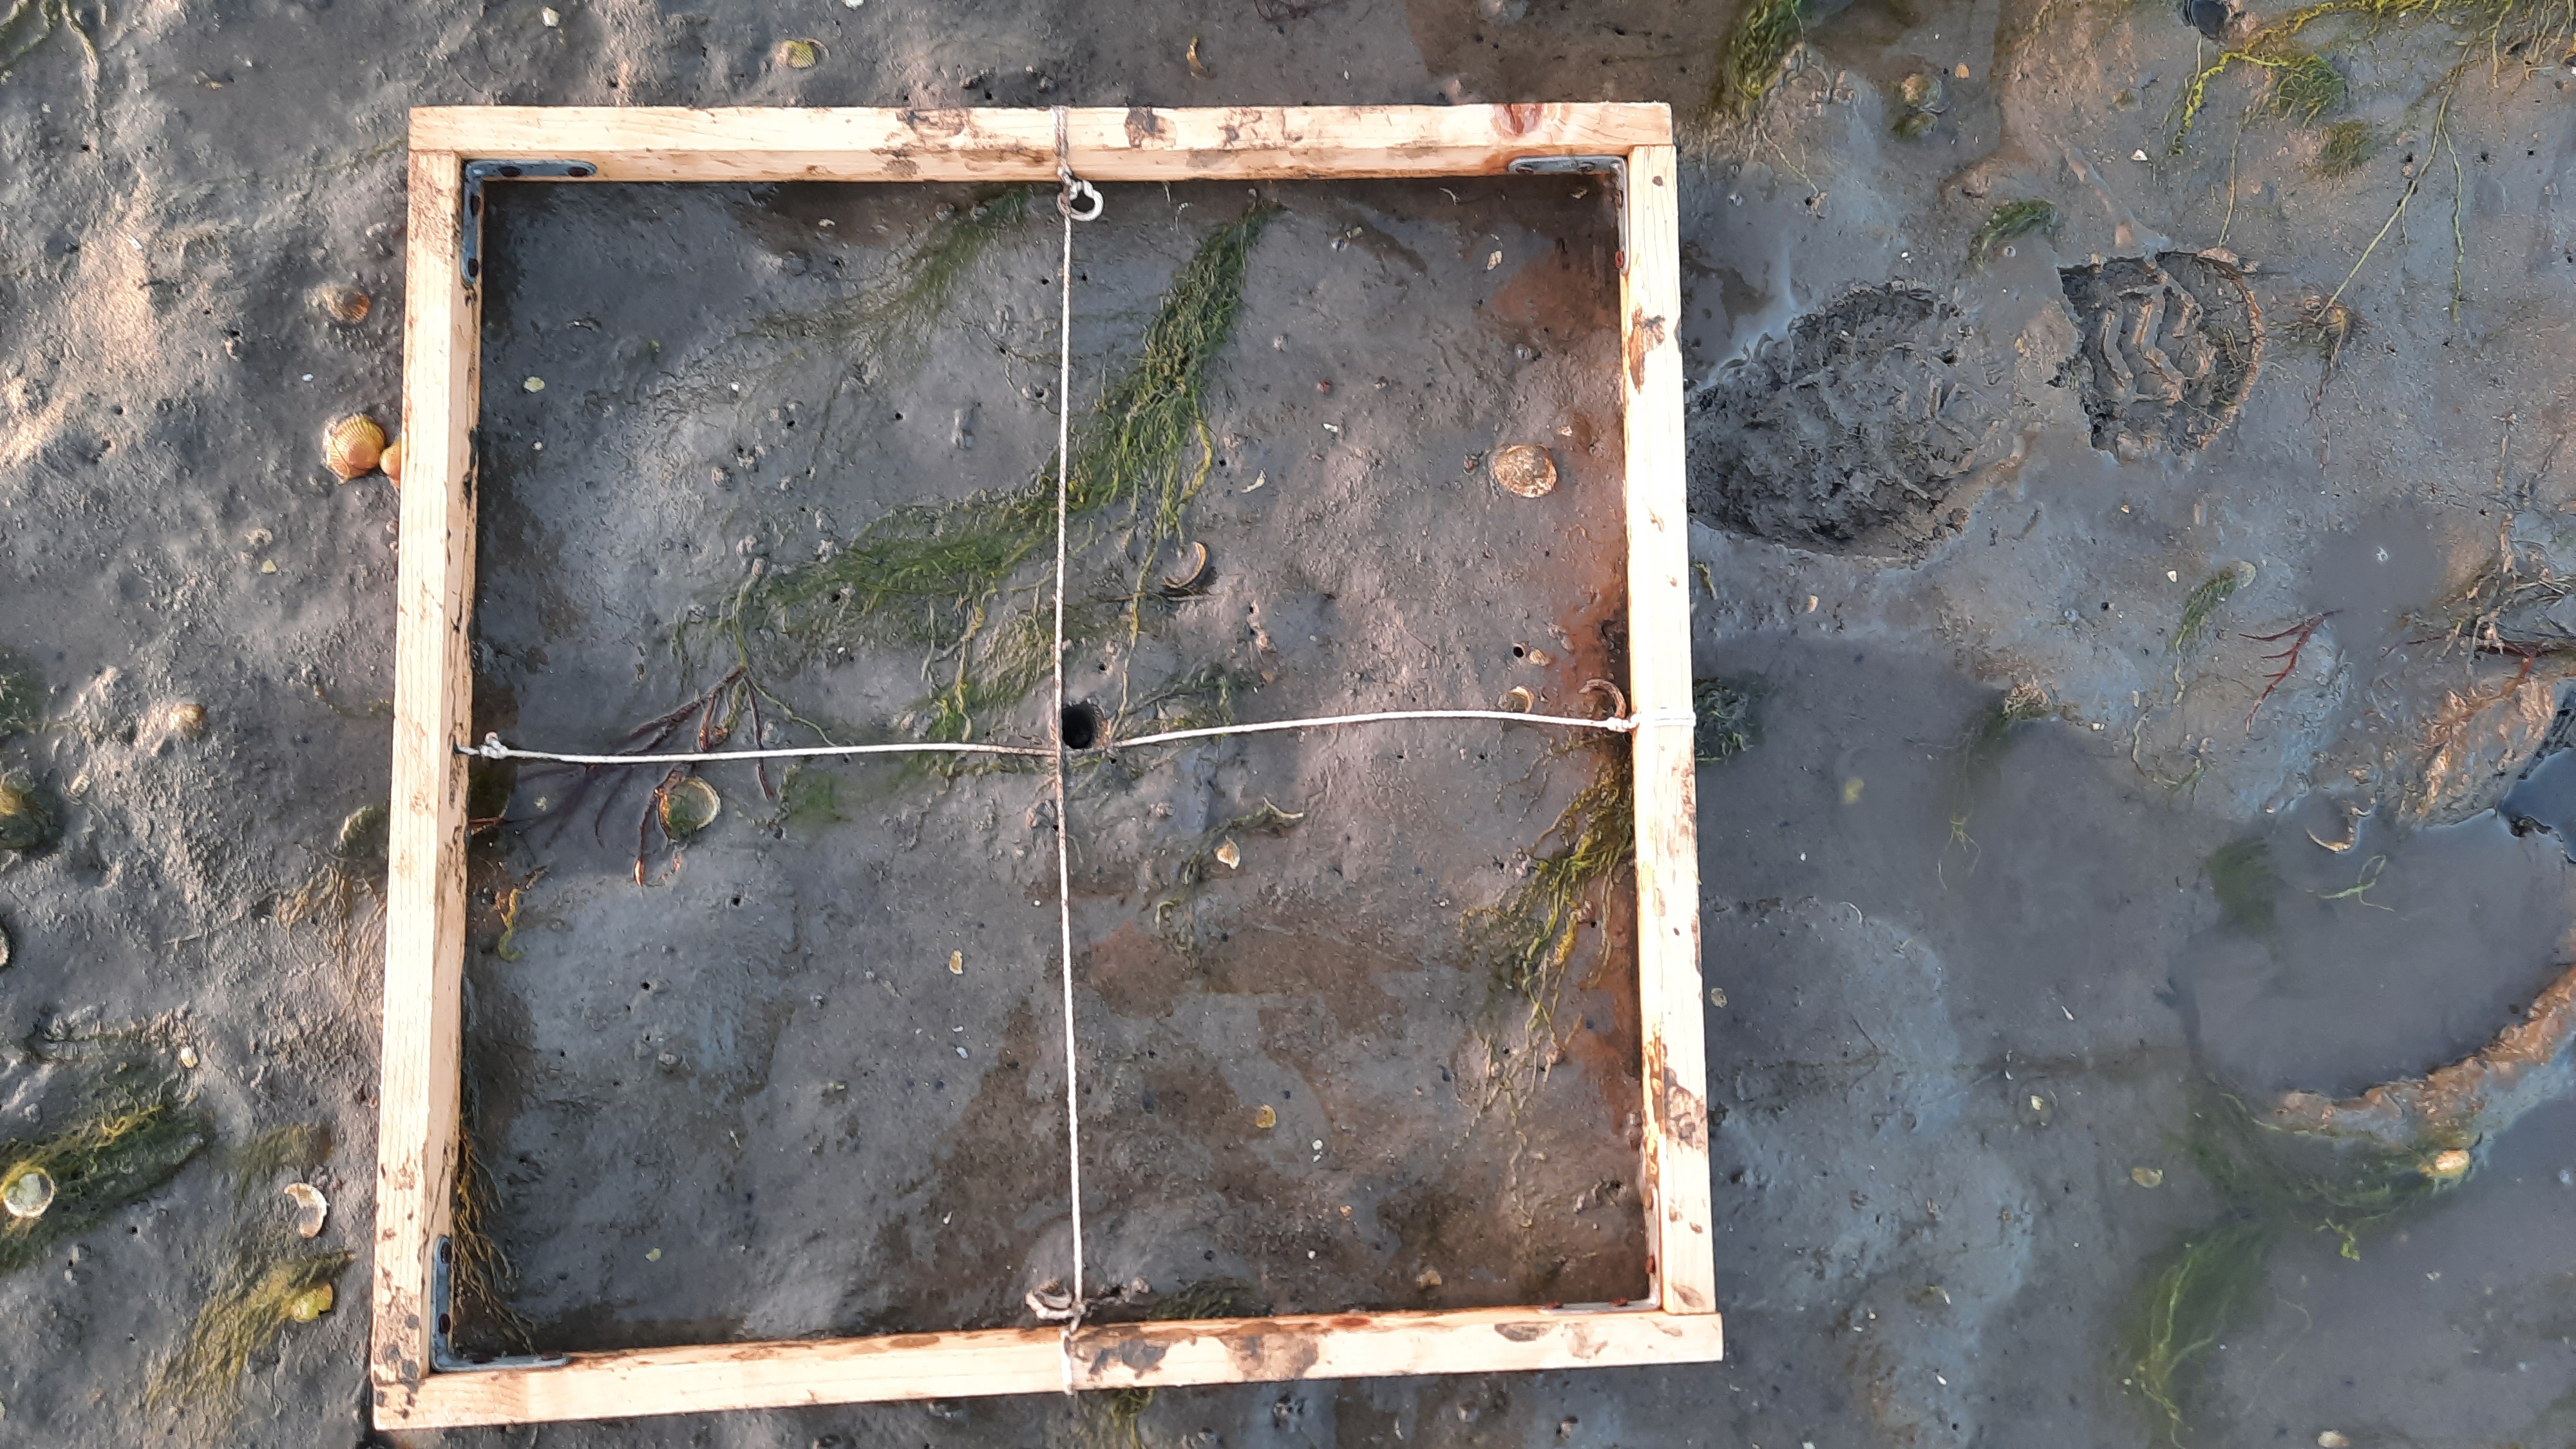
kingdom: Plantae
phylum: Chlorophyta
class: Ulvophyceae
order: Ulvales
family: Ulvaceae
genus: Ulva
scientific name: Ulva
